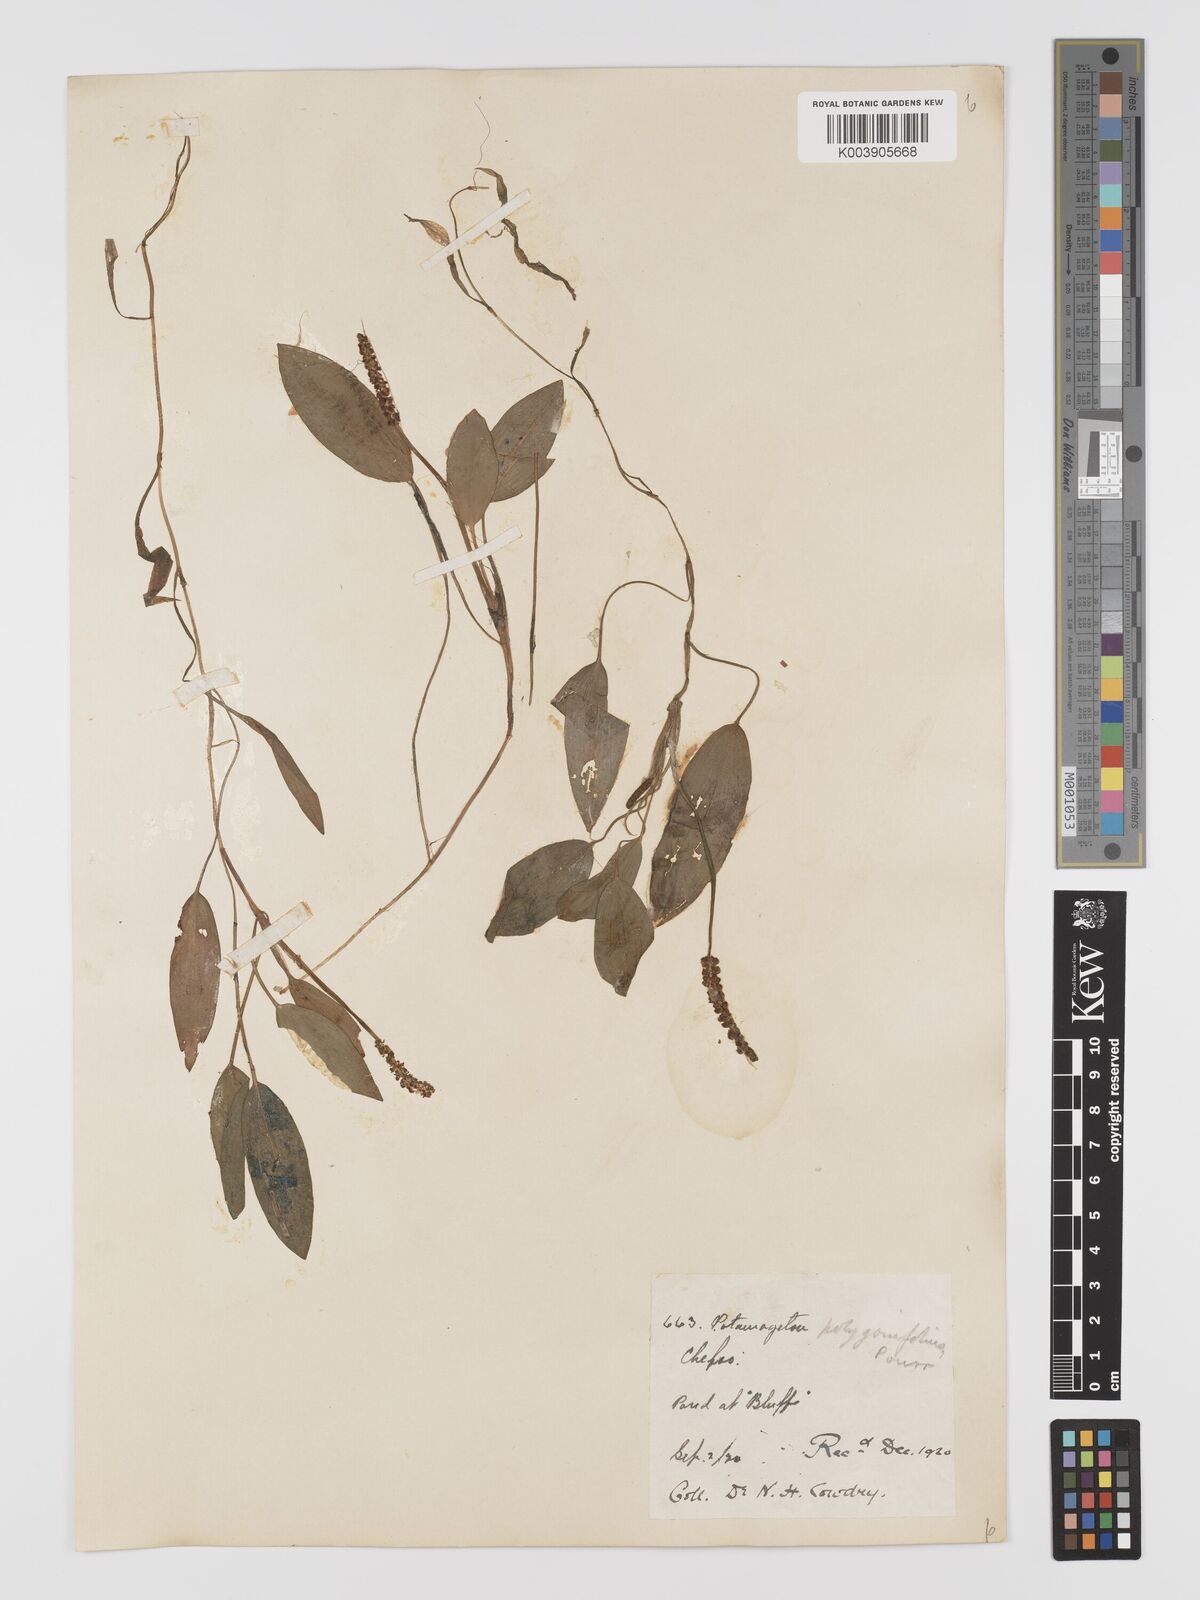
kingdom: Plantae
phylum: Tracheophyta
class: Liliopsida
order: Alismatales
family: Potamogetonaceae
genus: Potamogeton
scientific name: Potamogeton distinctus
